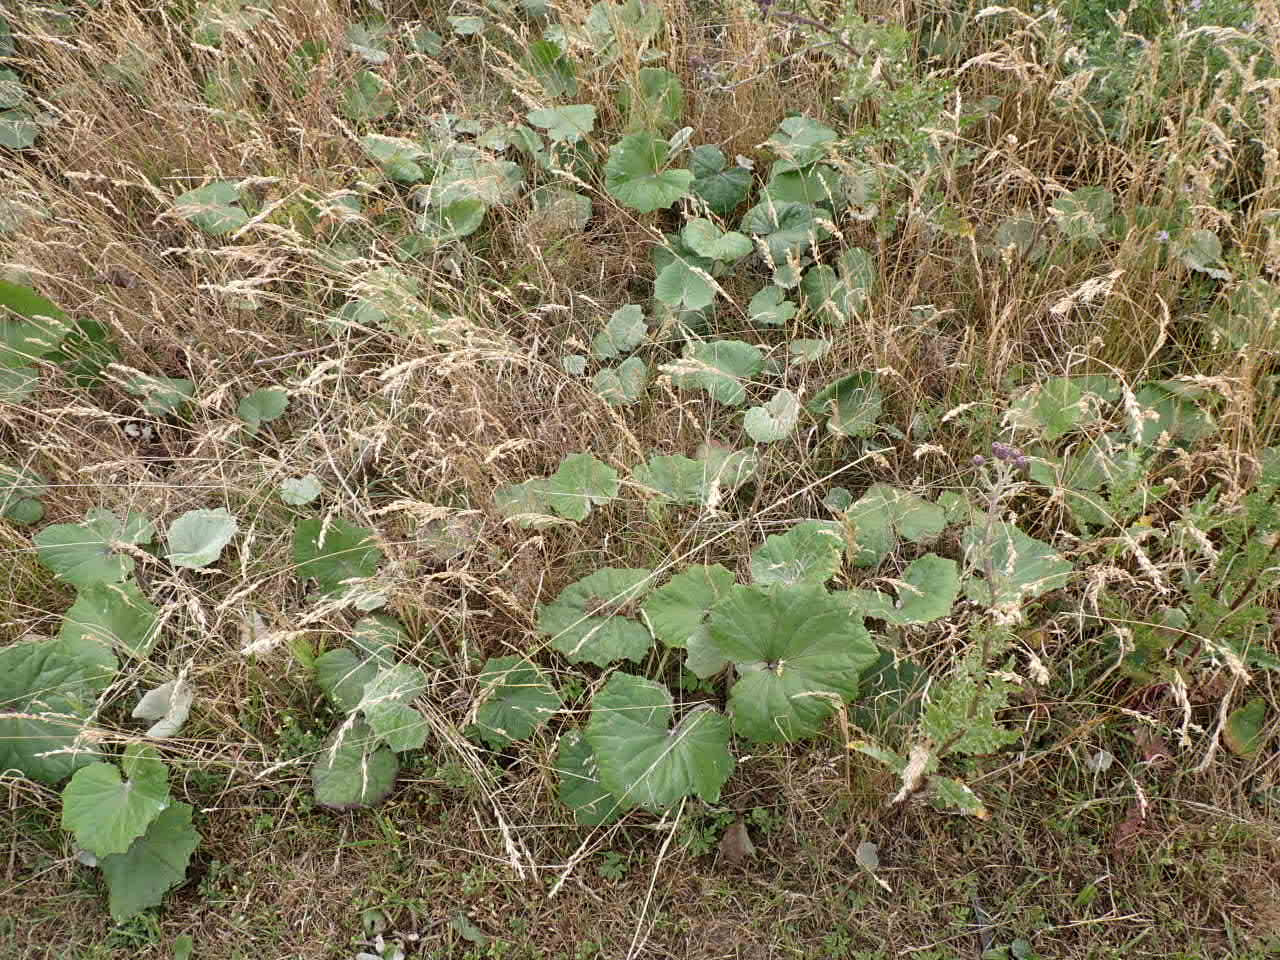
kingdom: Plantae
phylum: Tracheophyta
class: Magnoliopsida
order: Asterales
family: Asteraceae
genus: Tussilago
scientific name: Tussilago farfara
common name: Følfod
